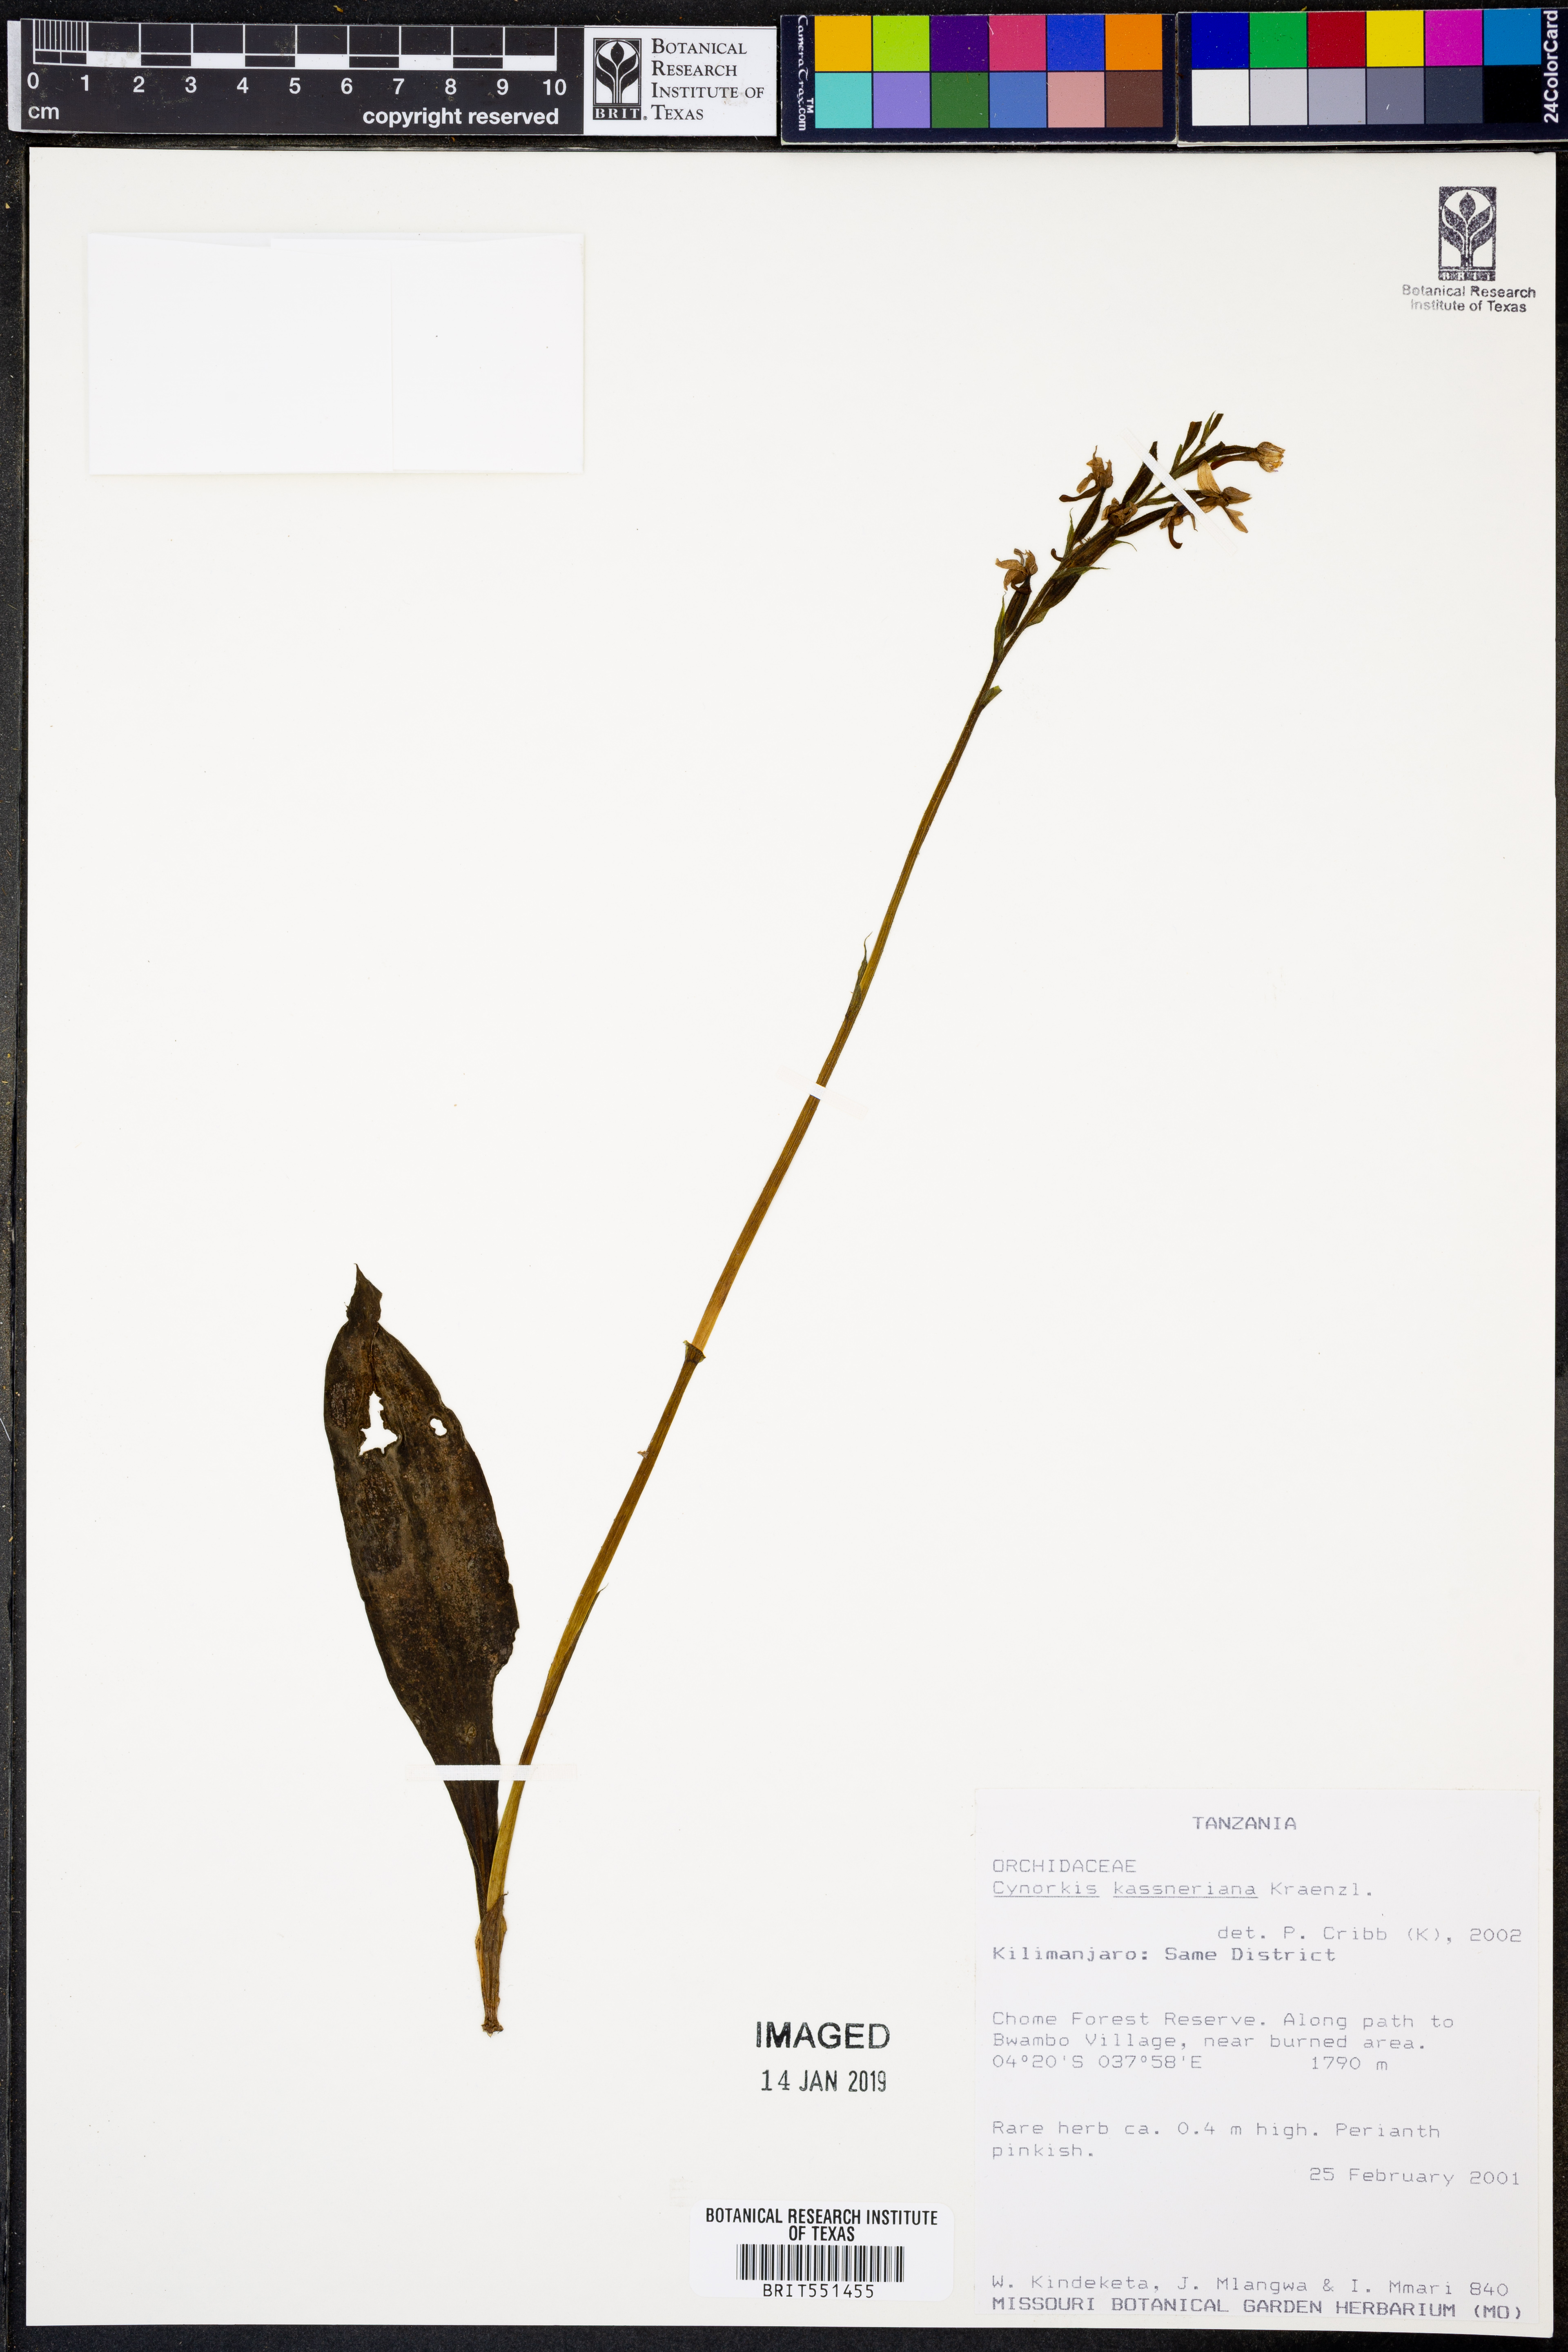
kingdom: Plantae
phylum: Tracheophyta
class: Liliopsida
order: Asparagales
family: Orchidaceae
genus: Cynorkis
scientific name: Cynorkis kassneriana
